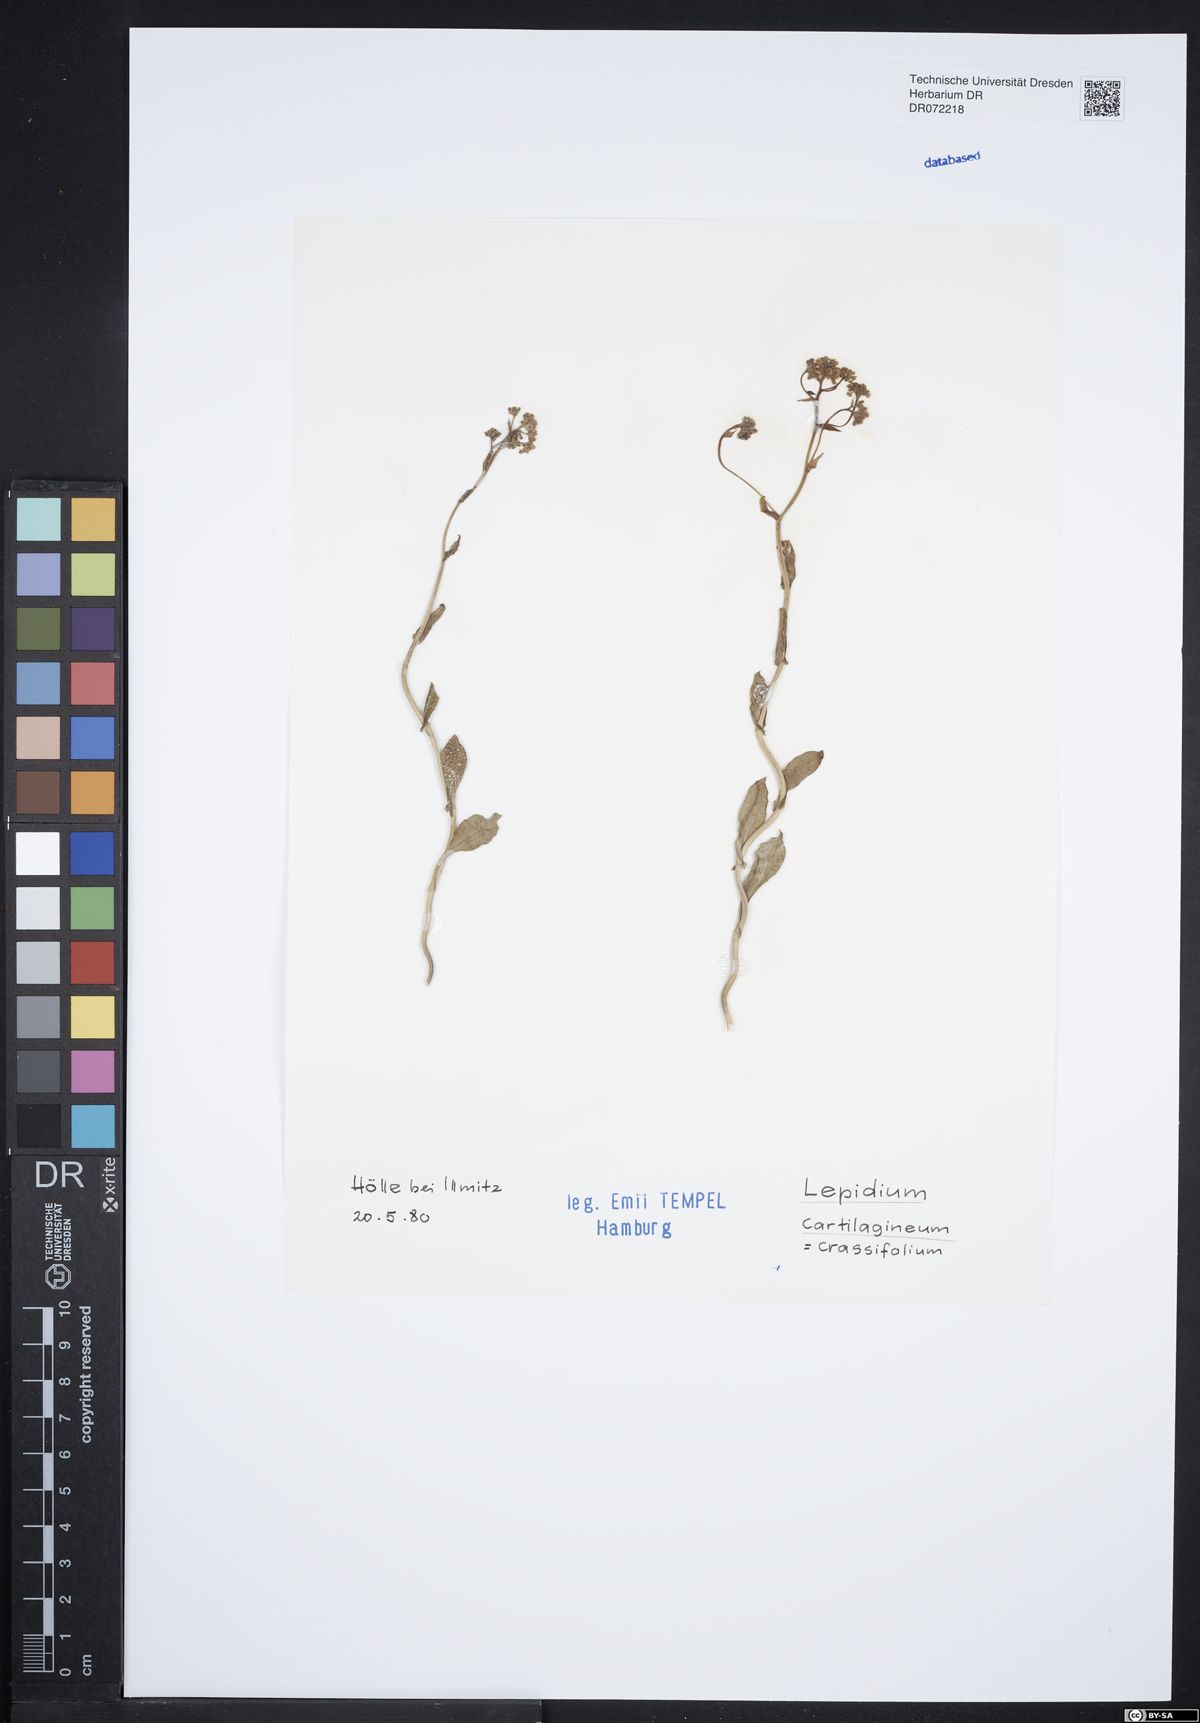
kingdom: Plantae
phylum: Tracheophyta
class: Magnoliopsida
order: Brassicales
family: Brassicaceae
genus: Lepidium
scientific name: Lepidium cartilagineum
